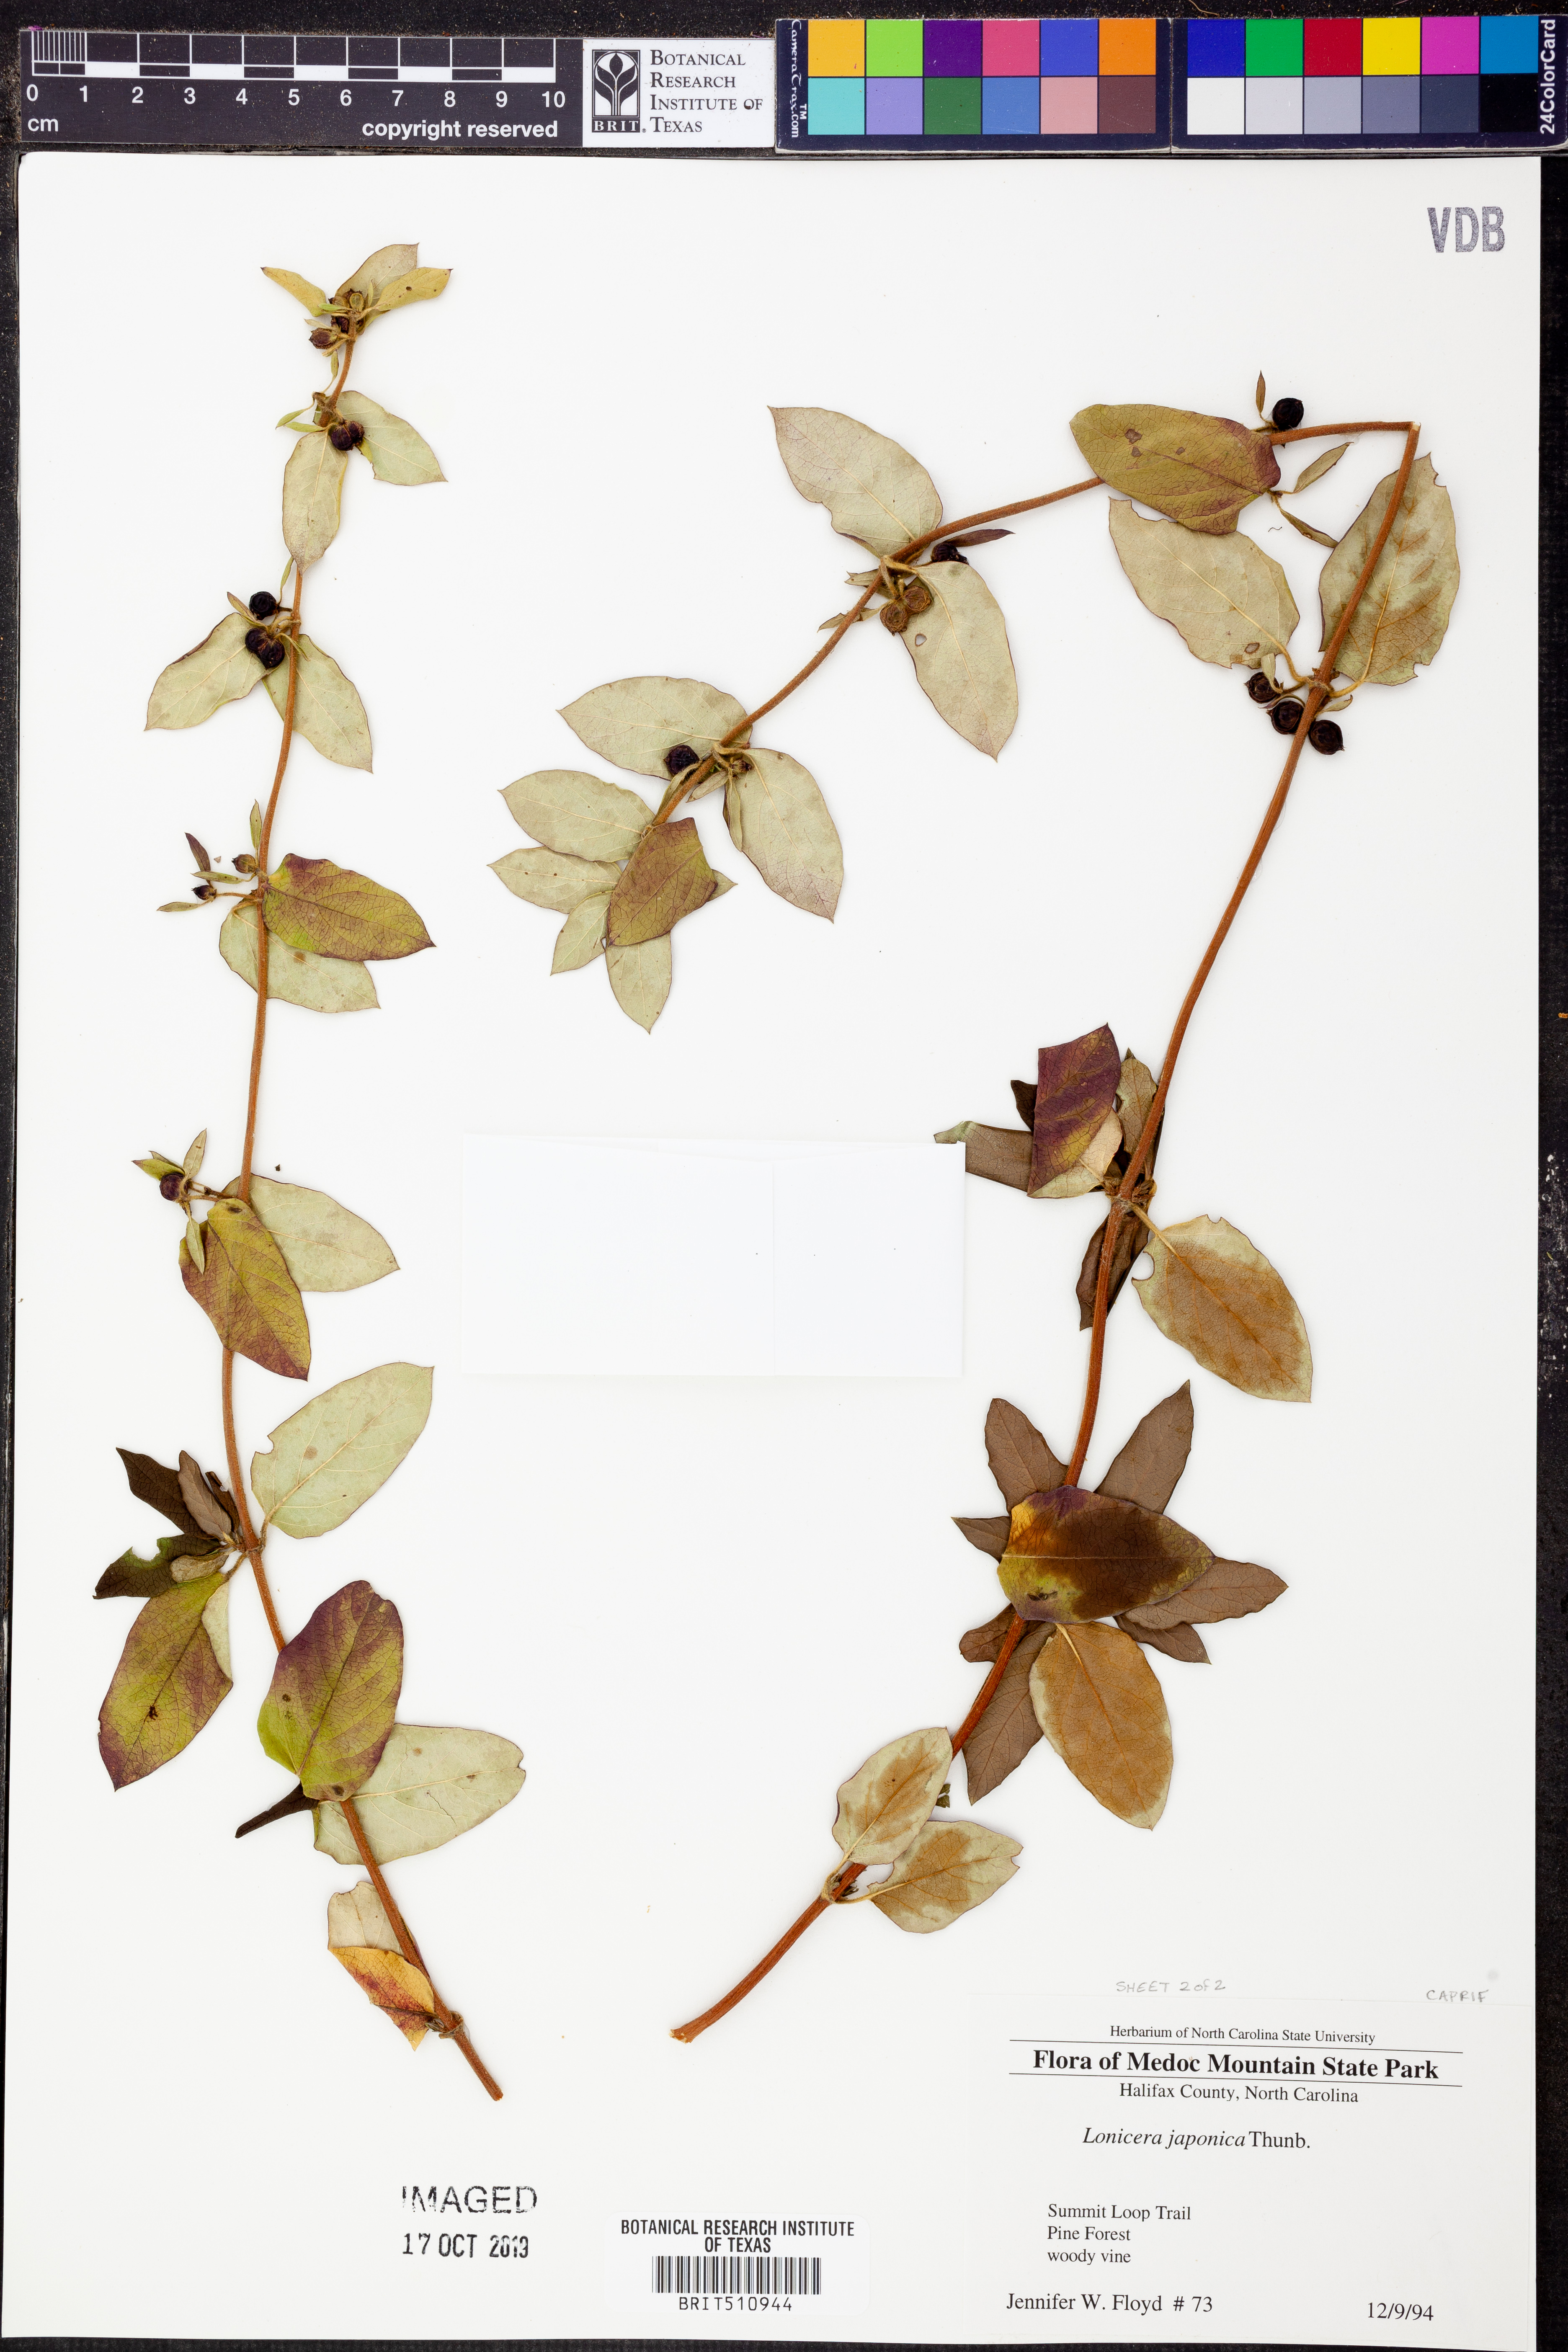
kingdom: Plantae
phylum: Tracheophyta
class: Magnoliopsida
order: Dipsacales
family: Caprifoliaceae
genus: Lonicera
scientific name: Lonicera japonica
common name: Japanese honeysuckle
